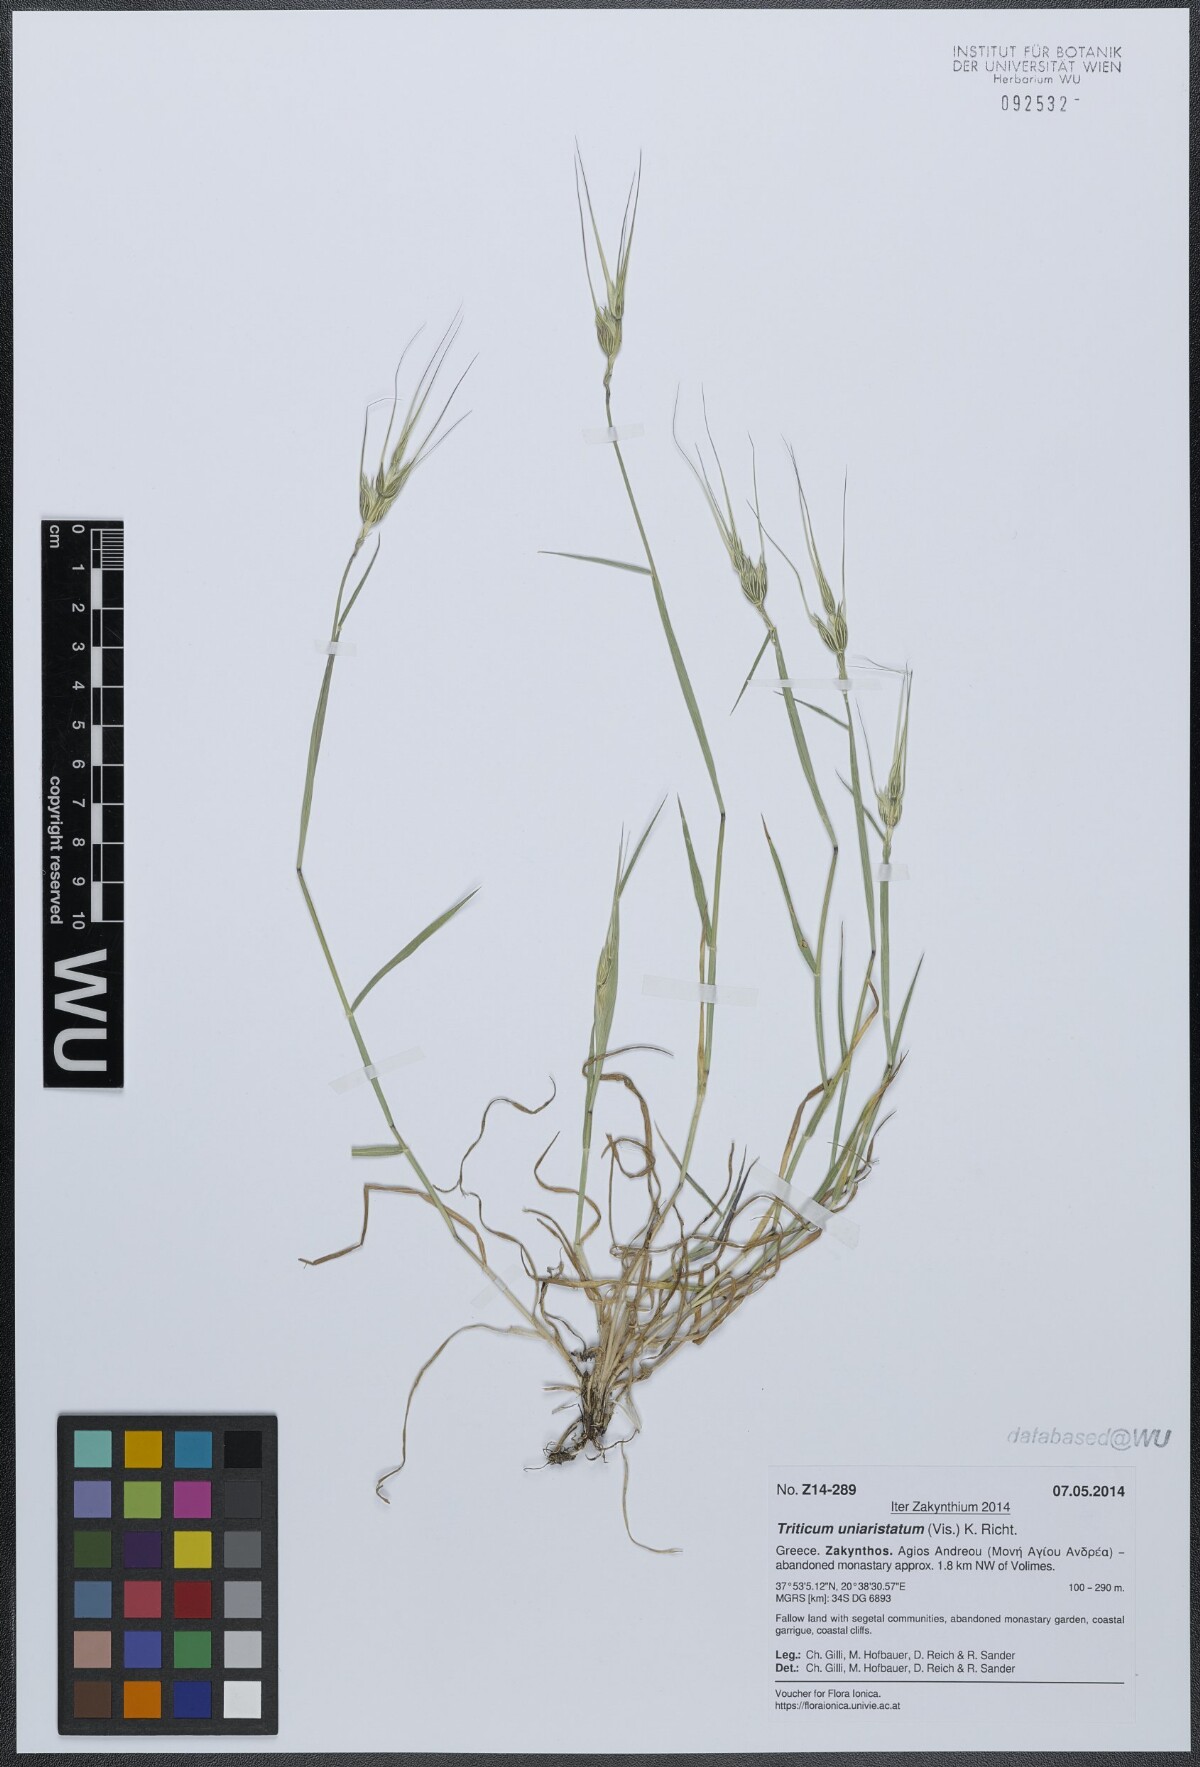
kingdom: Plantae
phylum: Tracheophyta
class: Liliopsida
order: Poales
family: Poaceae
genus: Aegilops
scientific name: Aegilops uniaristata
